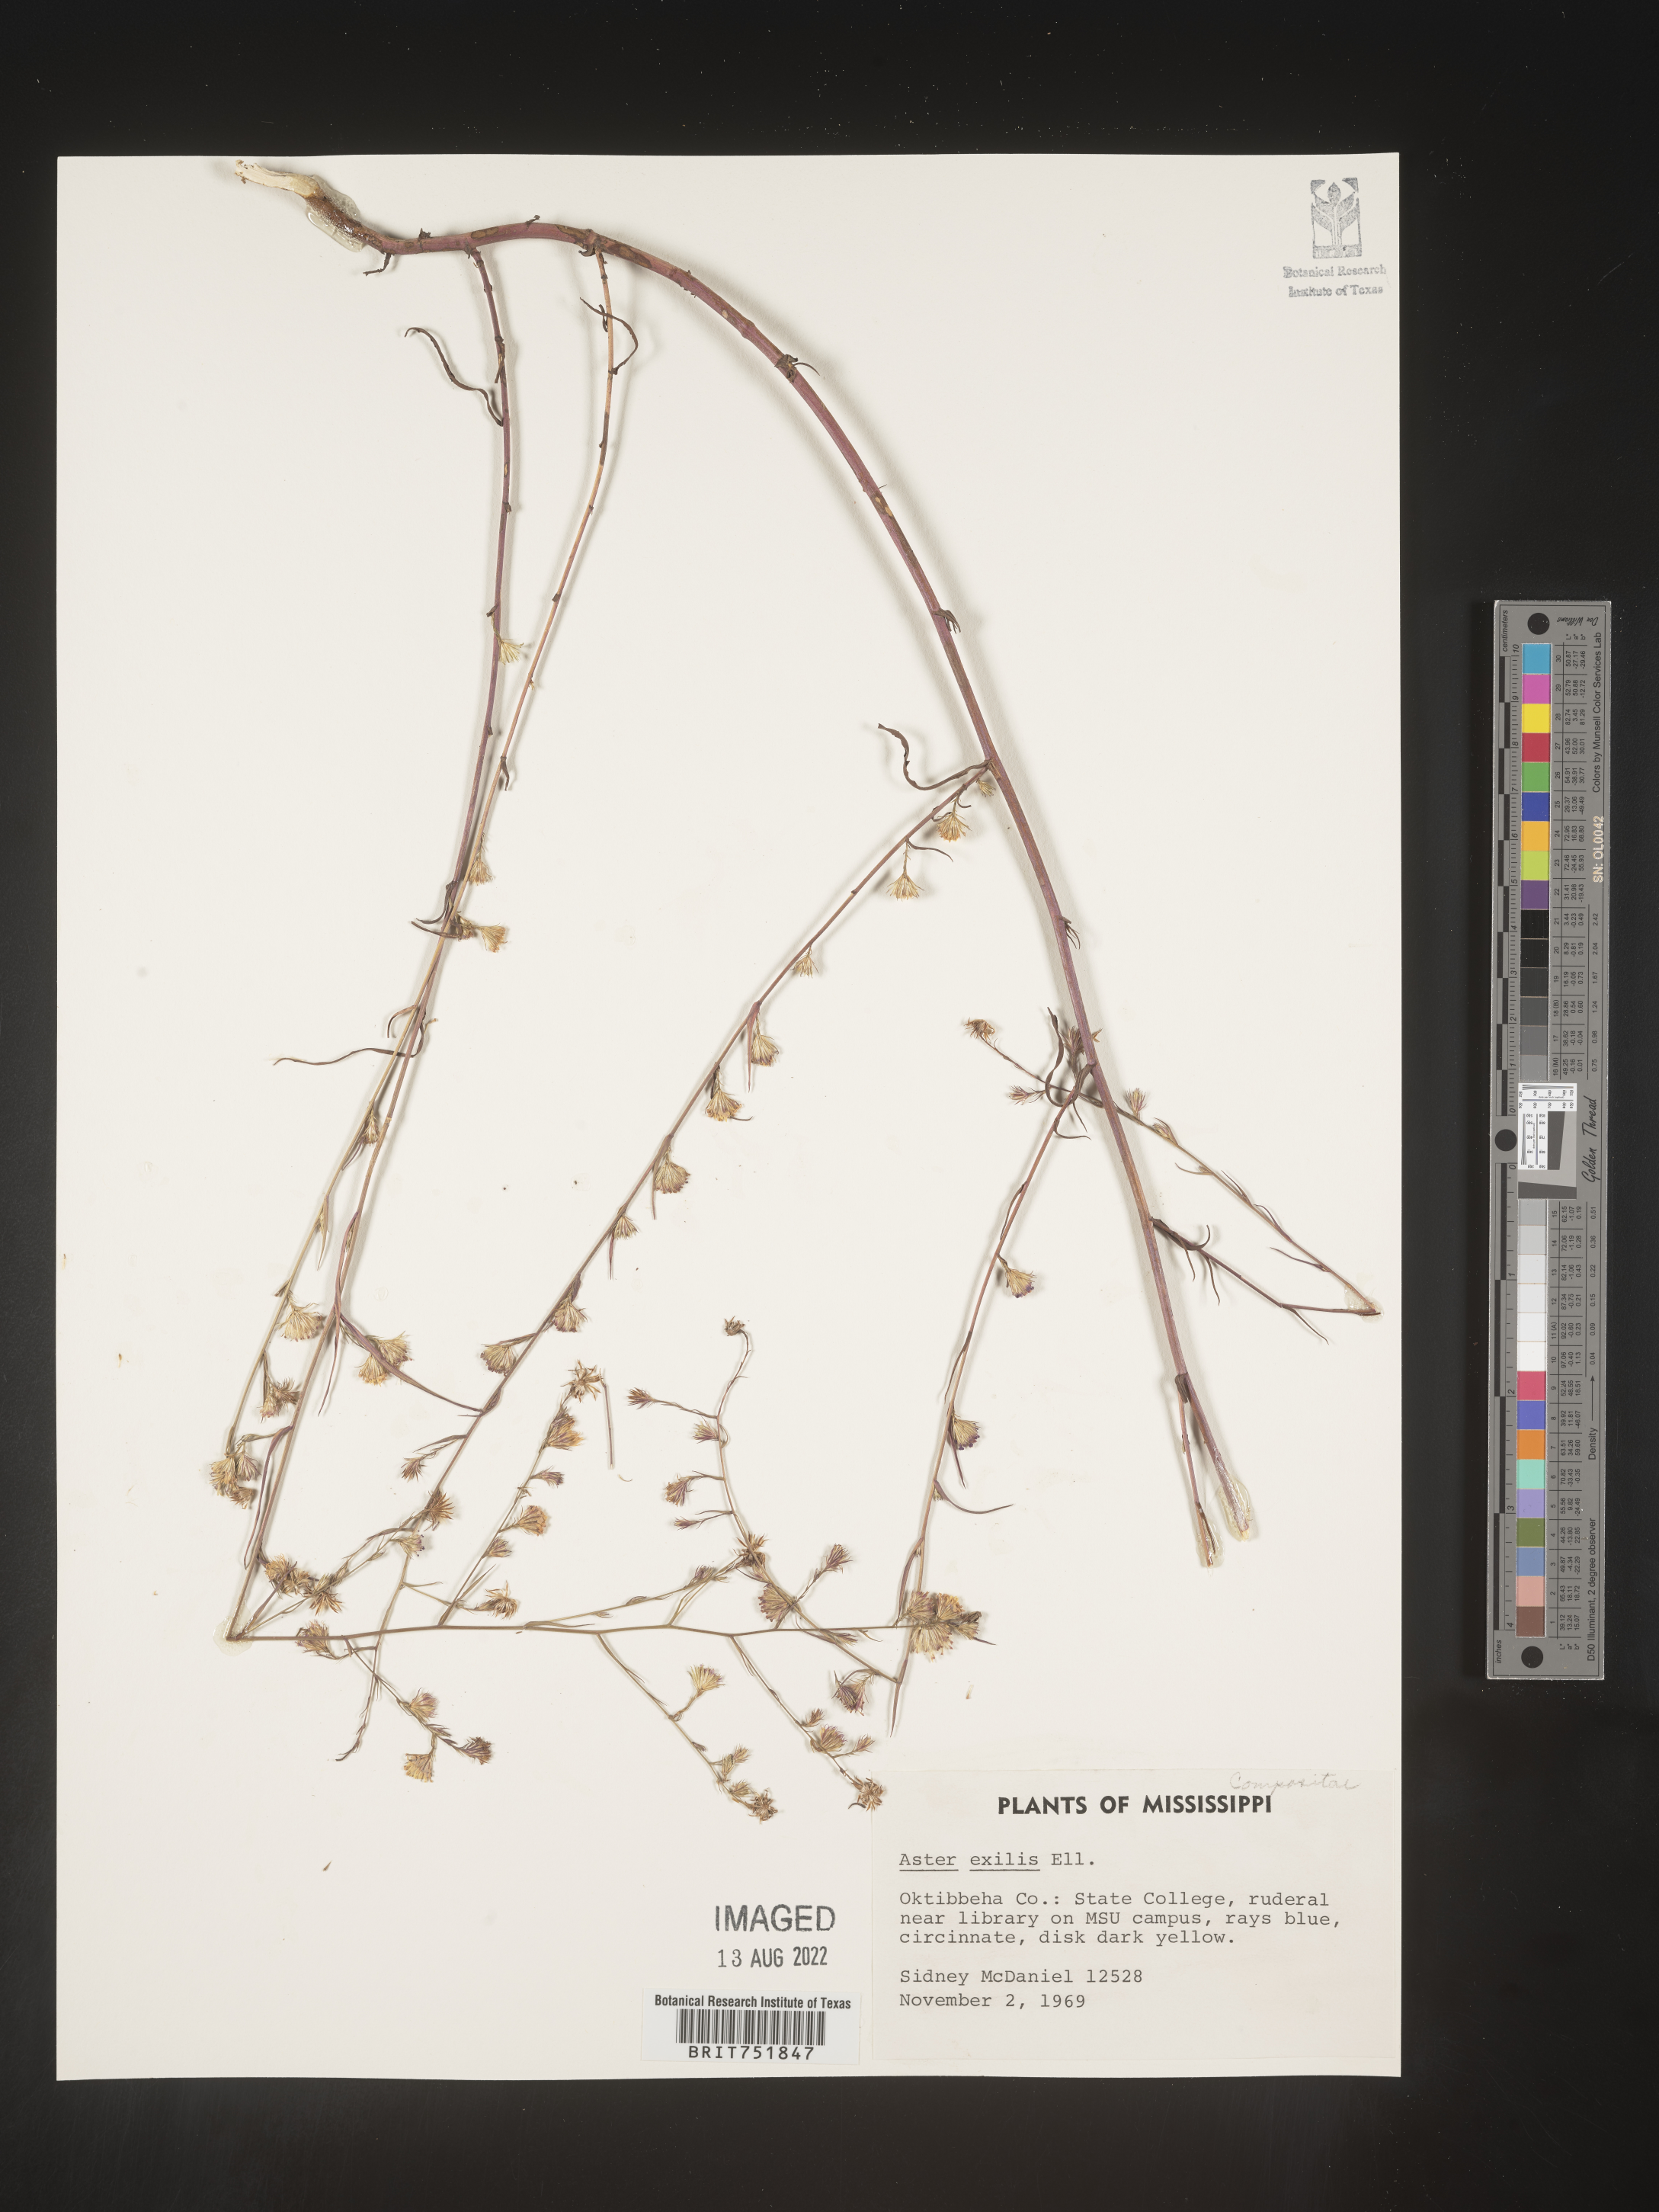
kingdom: Plantae
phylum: Tracheophyta
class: Magnoliopsida
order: Asterales
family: Asteraceae
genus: Symphyotrichum
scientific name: Symphyotrichum divaricatum
